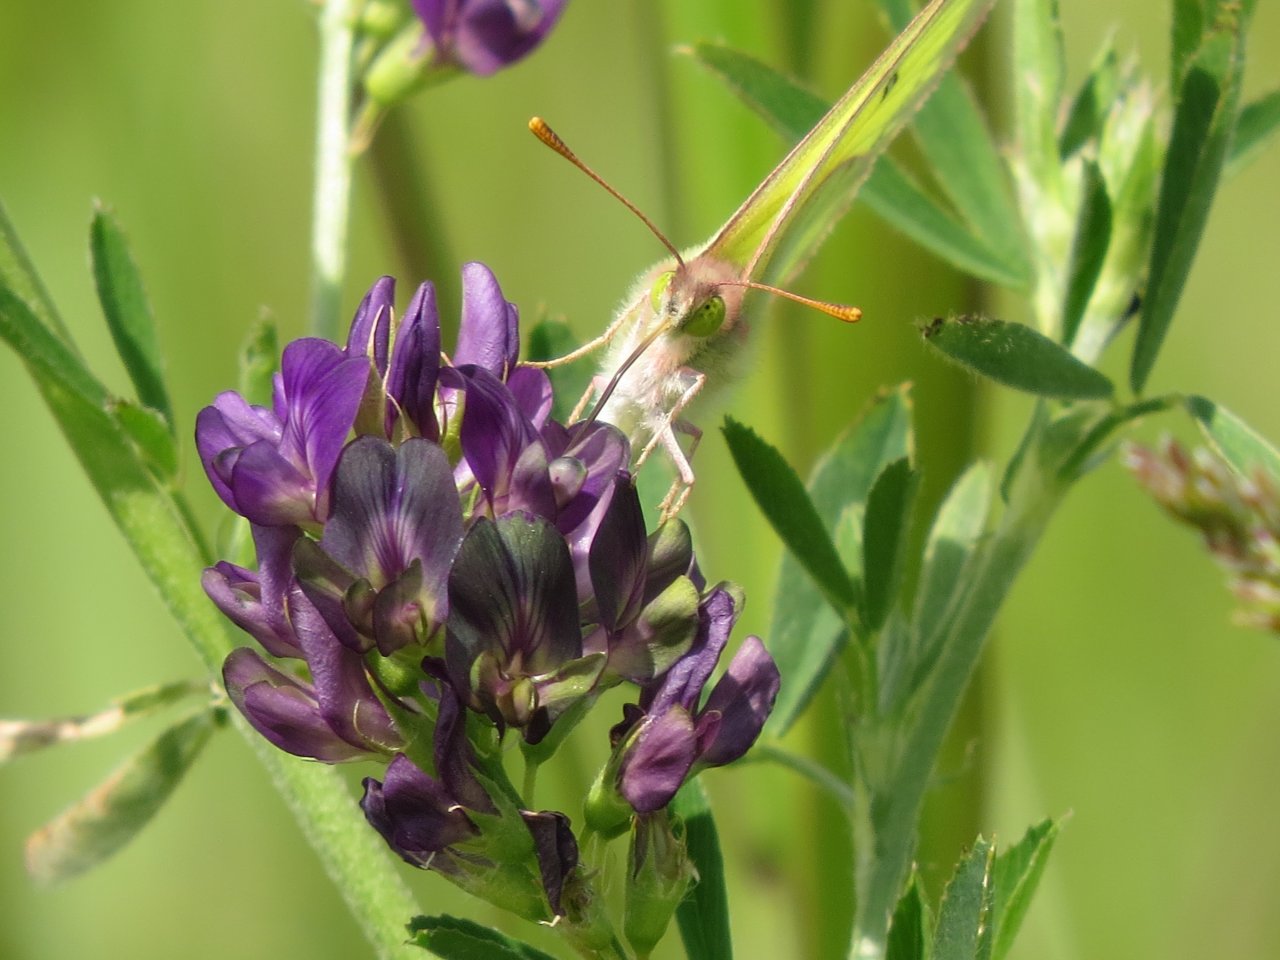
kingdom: Animalia
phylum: Arthropoda
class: Insecta
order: Lepidoptera
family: Pieridae
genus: Colias
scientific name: Colias philodice
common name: Clouded Sulphur
